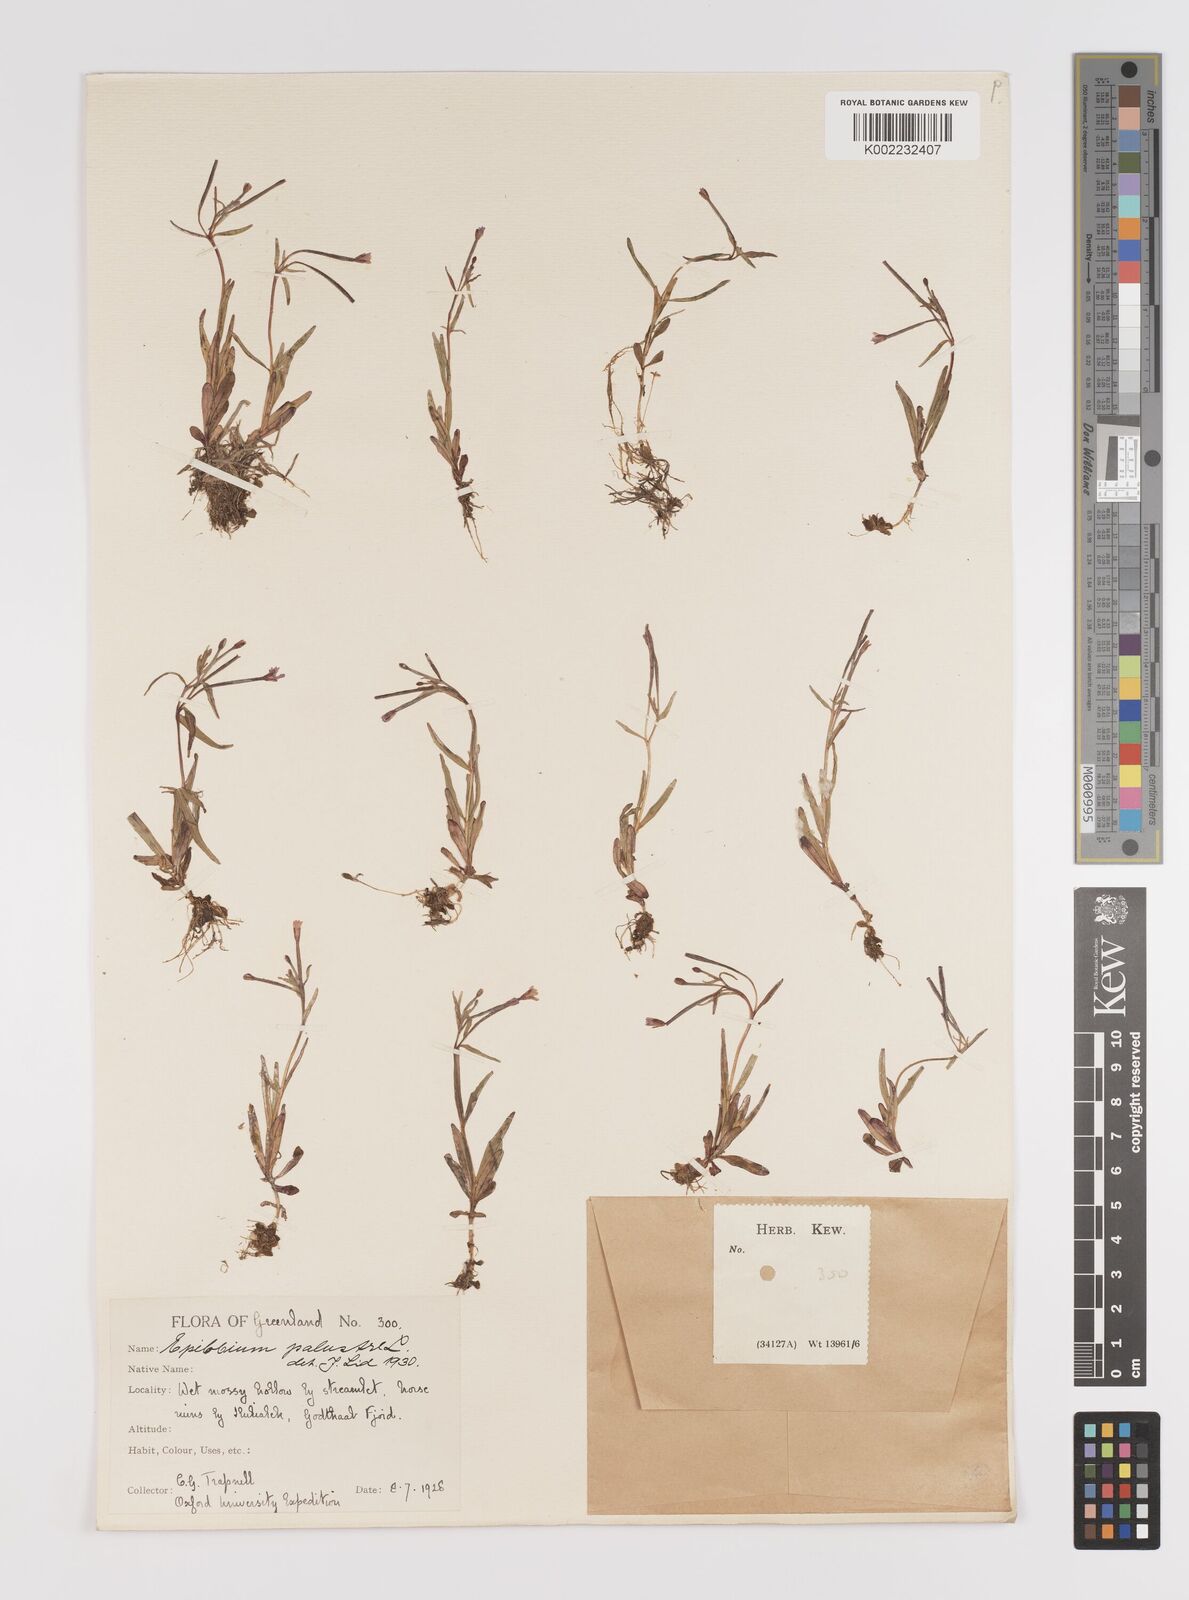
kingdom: Plantae
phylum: Tracheophyta
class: Magnoliopsida
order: Myrtales
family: Onagraceae
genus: Epilobium
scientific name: Epilobium palustre
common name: Marsh willowherb
